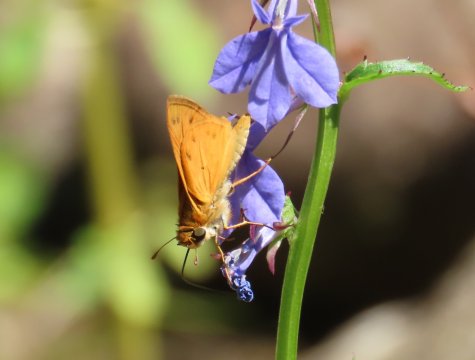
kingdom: Animalia
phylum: Arthropoda
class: Insecta
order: Lepidoptera
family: Hesperiidae
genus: Hylephila
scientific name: Hylephila phyleus
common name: Fiery Skipper
